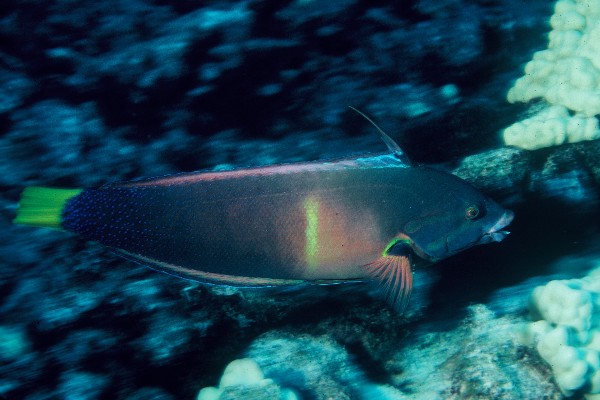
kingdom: Animalia
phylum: Chordata
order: Perciformes
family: Labridae
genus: Coris
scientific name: Coris gaimard
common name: Yellowtail coris
